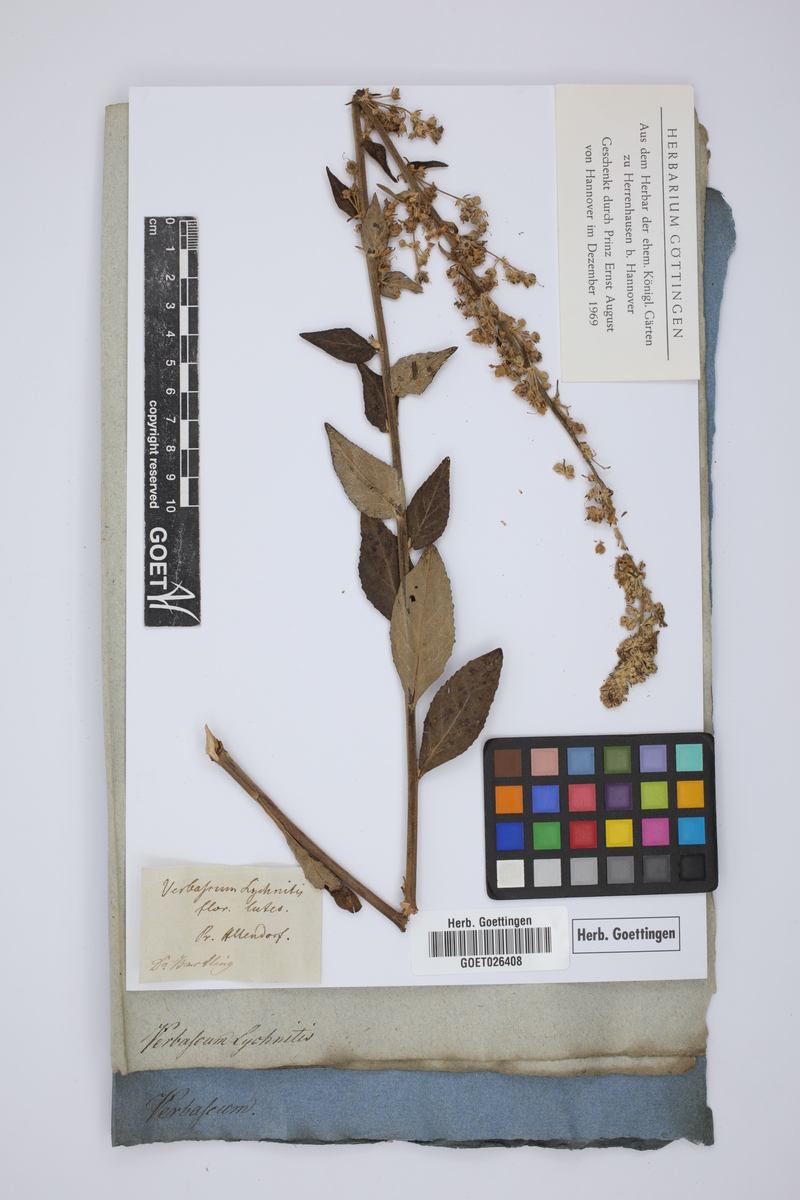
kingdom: Plantae
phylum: Tracheophyta
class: Magnoliopsida
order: Lamiales
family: Scrophulariaceae
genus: Verbascum
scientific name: Verbascum lychnitis
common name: White mullein
